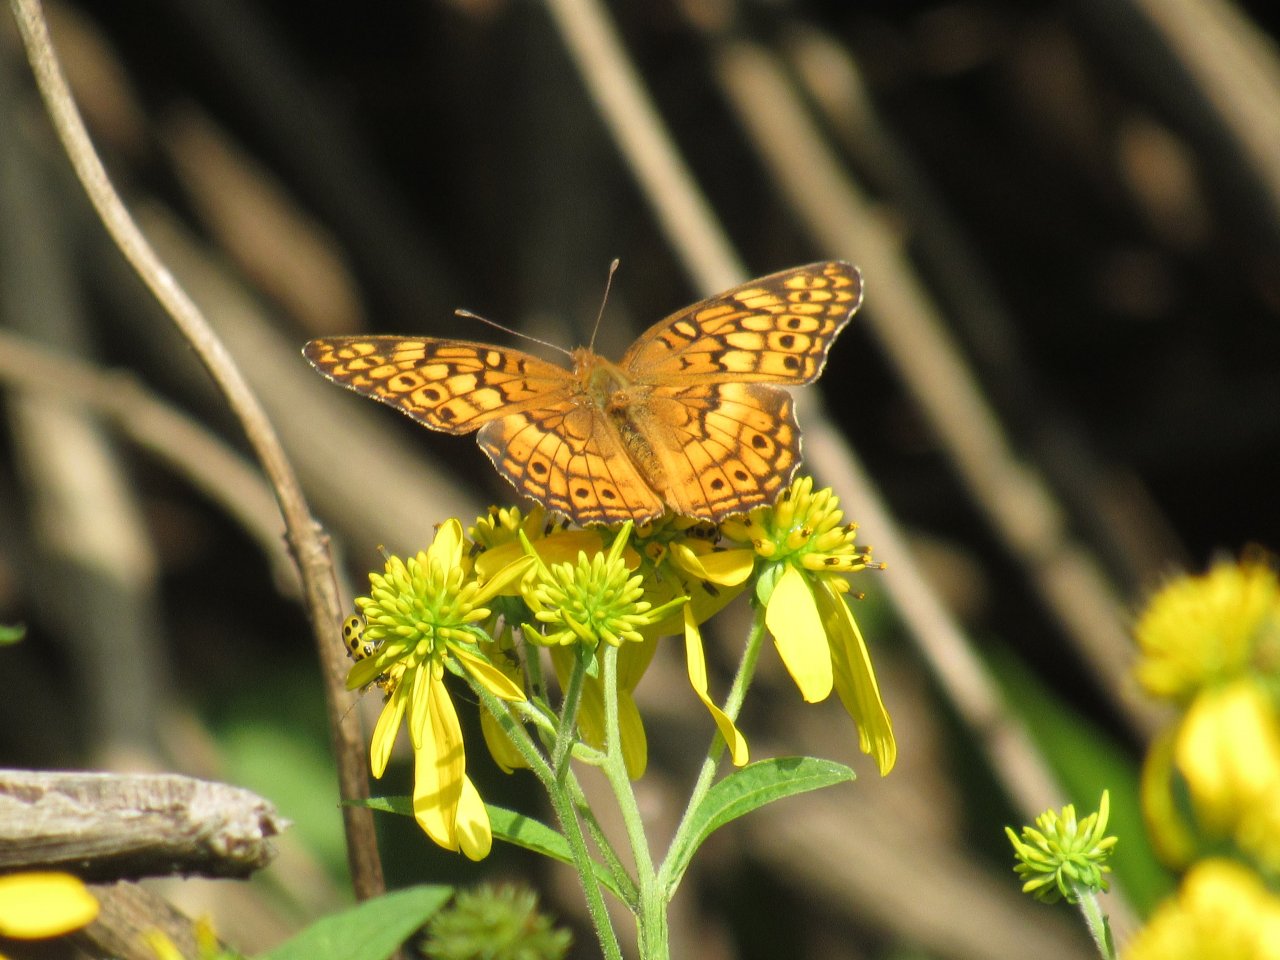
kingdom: Animalia
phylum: Arthropoda
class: Insecta
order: Lepidoptera
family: Nymphalidae
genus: Euptoieta
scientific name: Euptoieta claudia
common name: Variegated Fritillary
